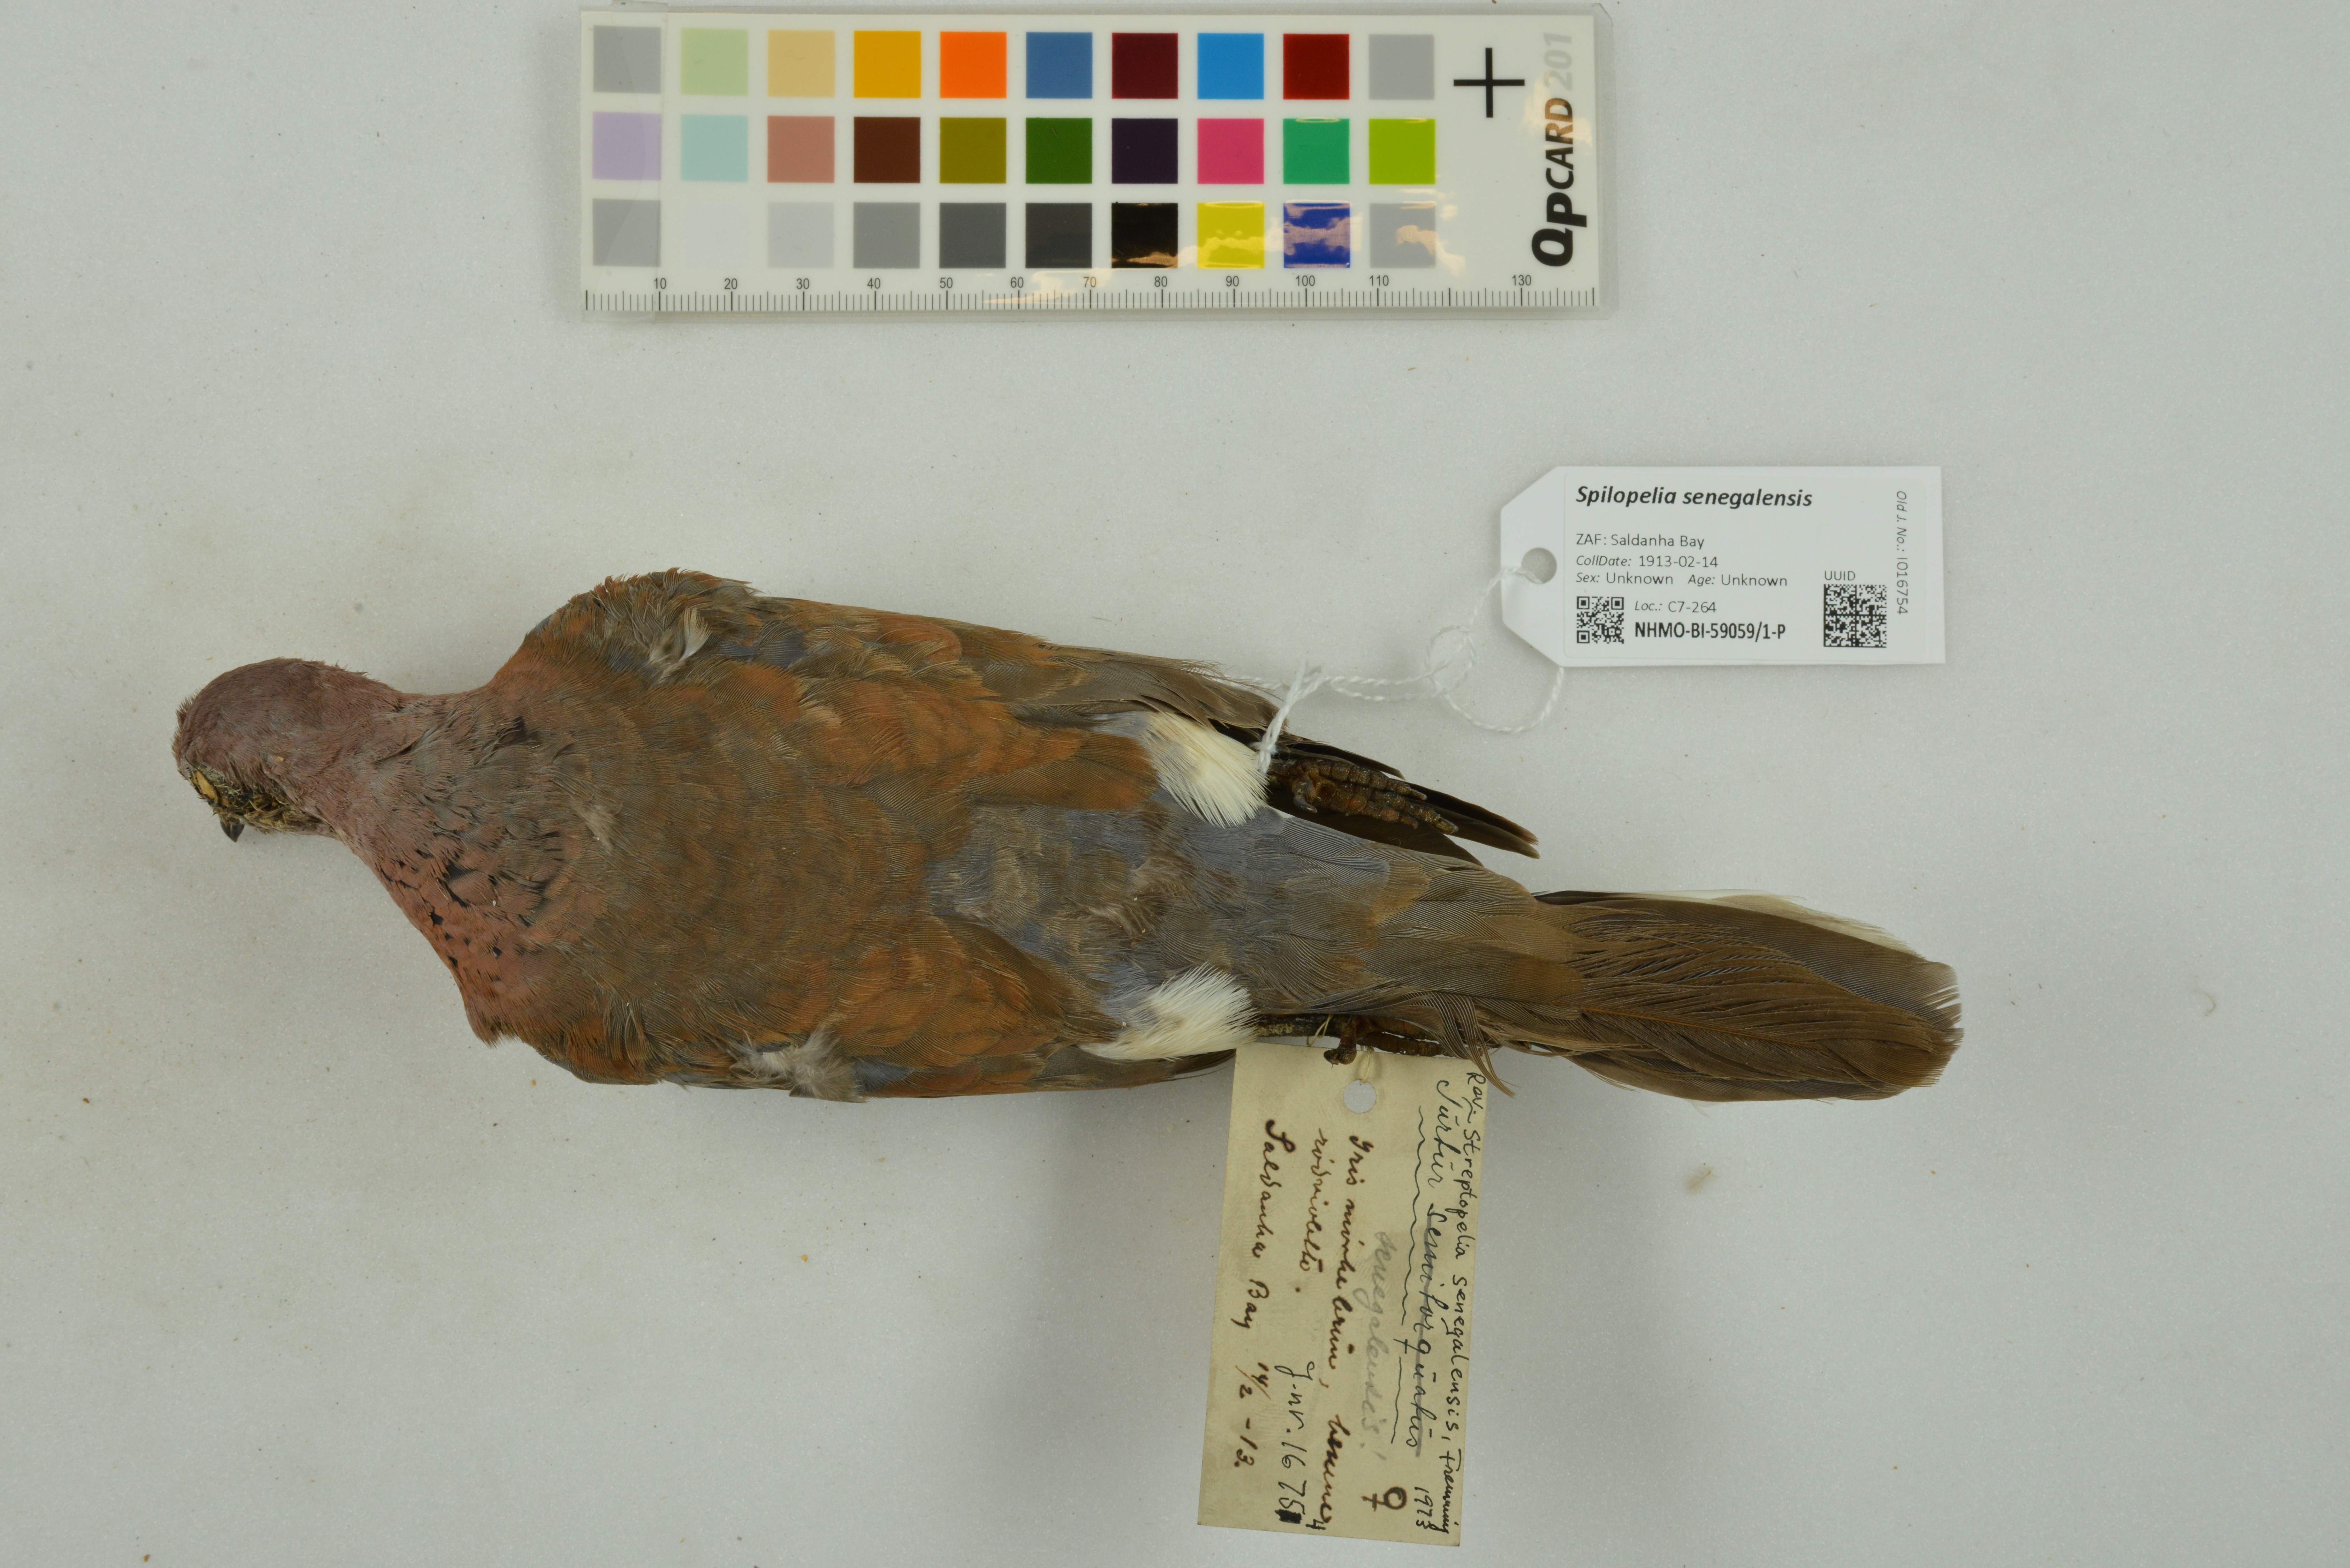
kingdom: Animalia
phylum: Chordata
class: Aves
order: Columbiformes
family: Columbidae
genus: Spilopelia
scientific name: Spilopelia senegalensis
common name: Laughing dove
